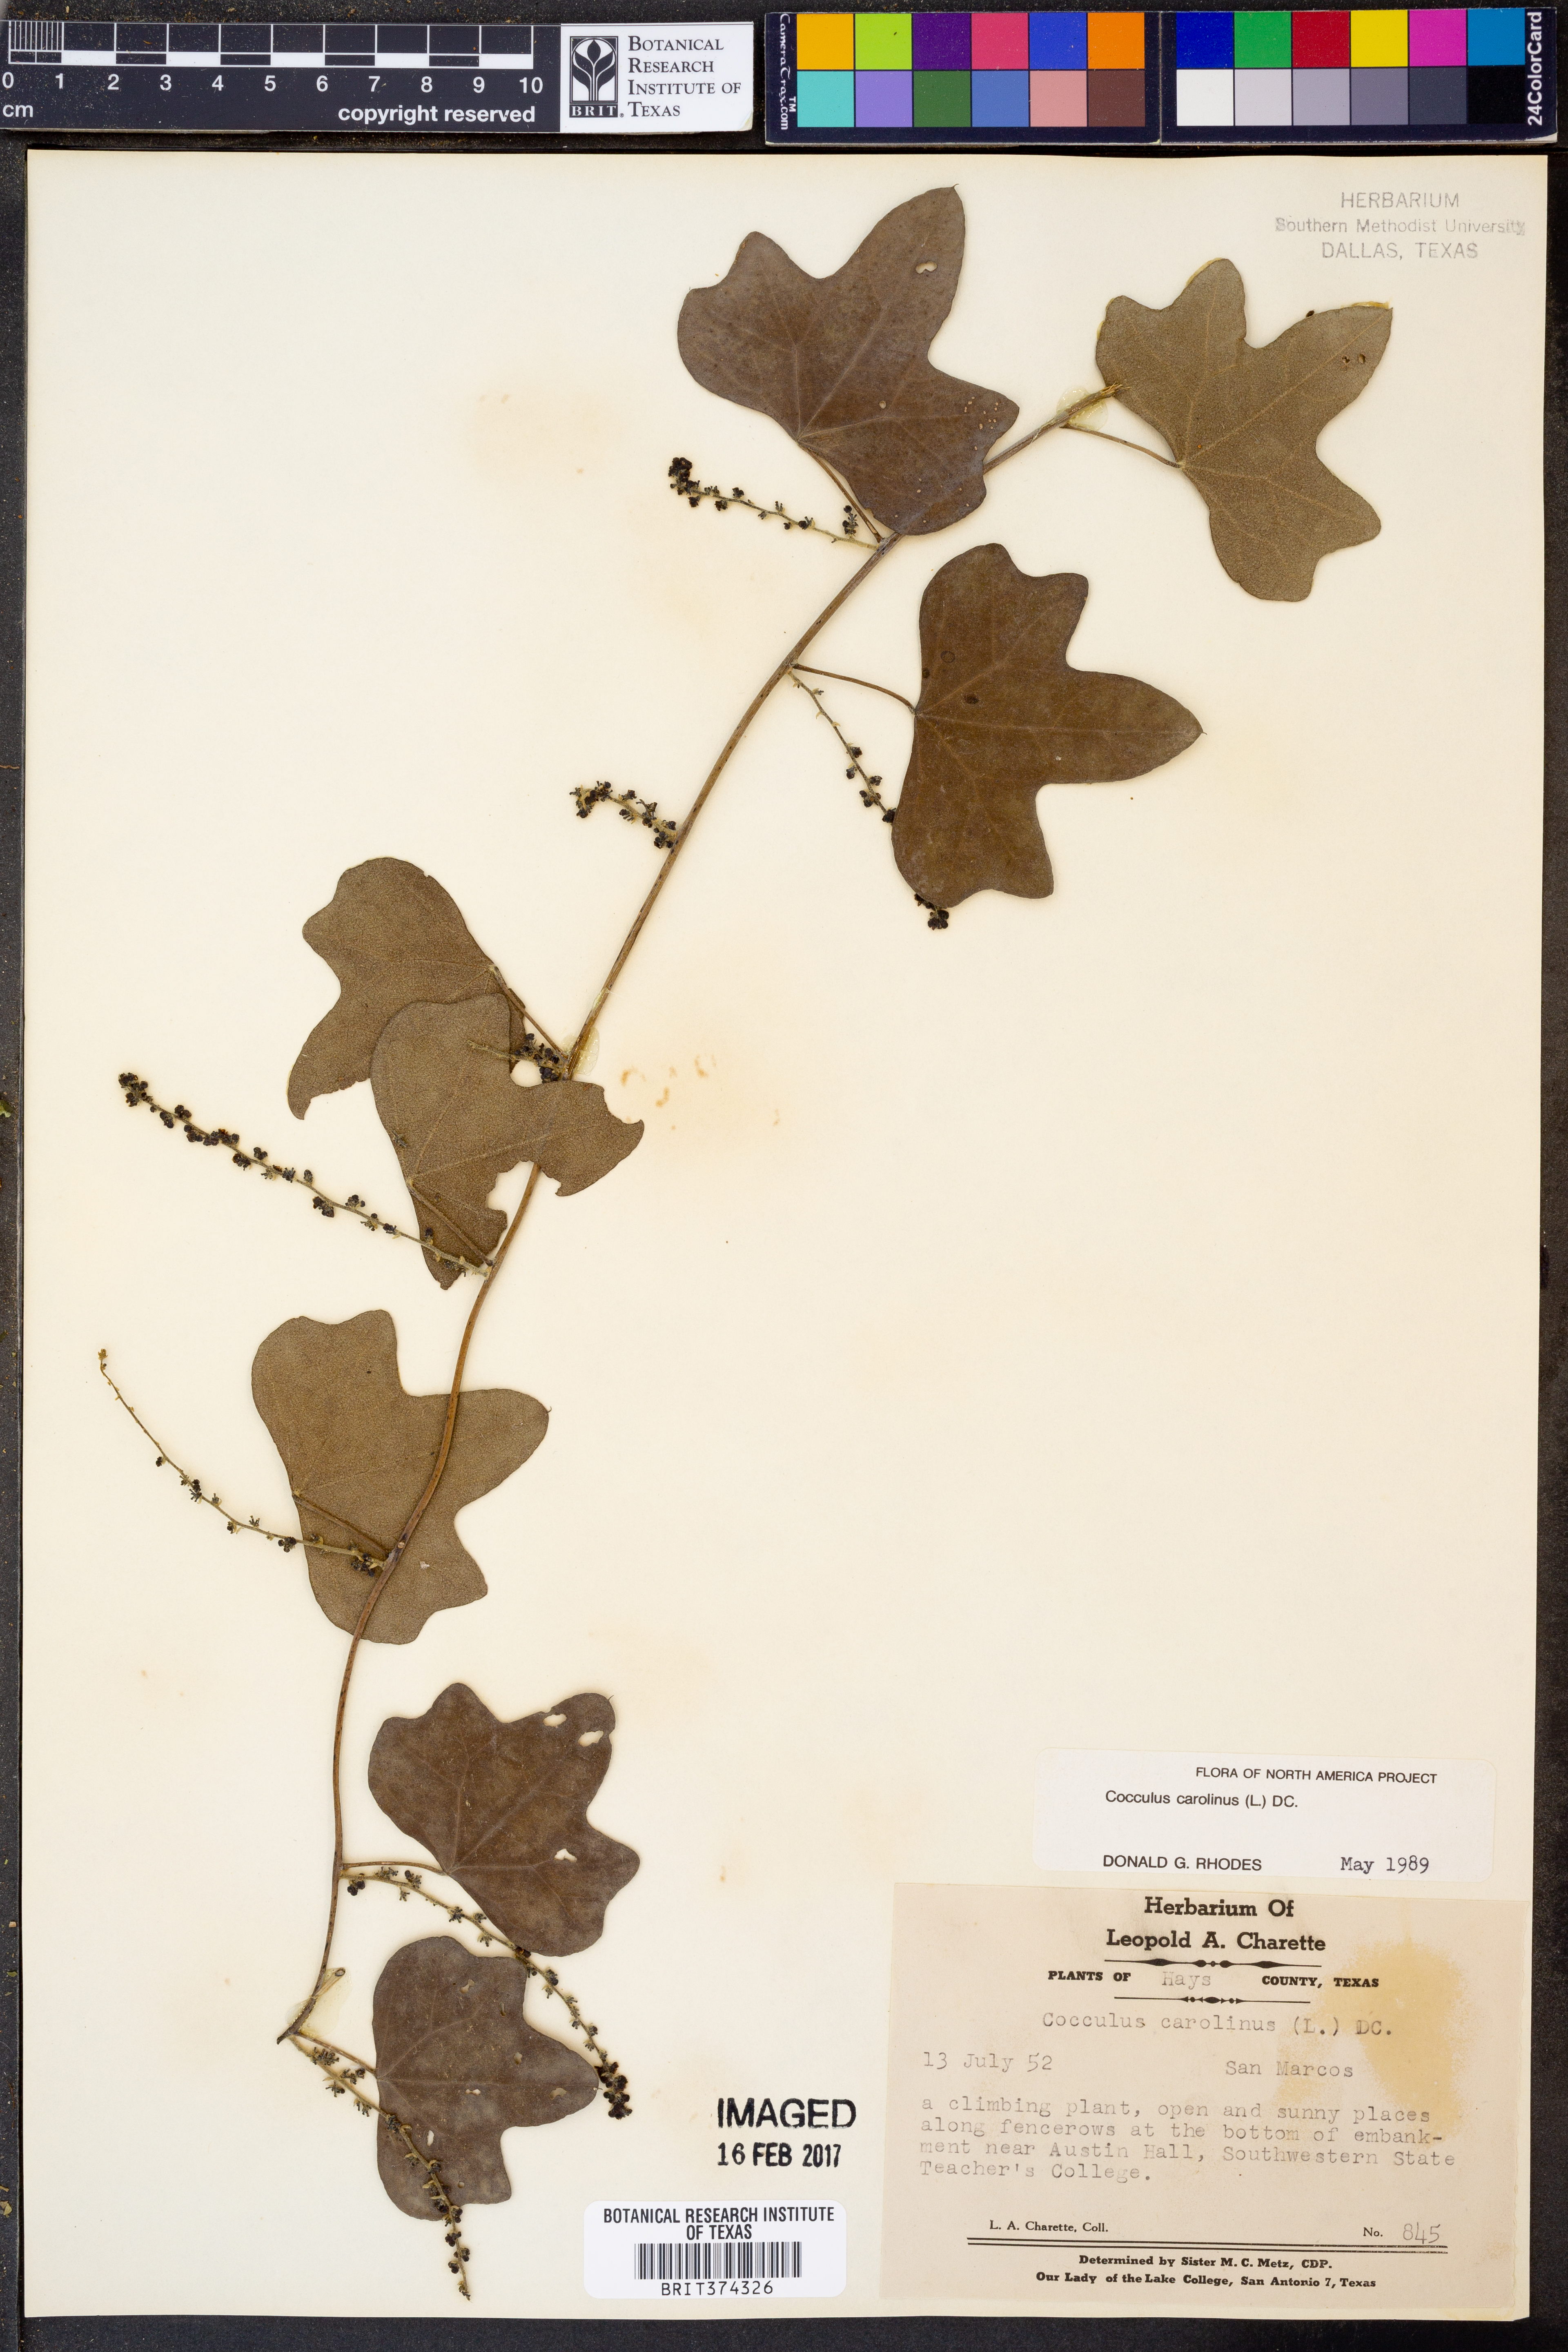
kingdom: Plantae
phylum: Tracheophyta
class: Magnoliopsida
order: Ranunculales
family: Menispermaceae
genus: Cocculus
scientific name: Cocculus carolinus
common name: Carolina moonseed
